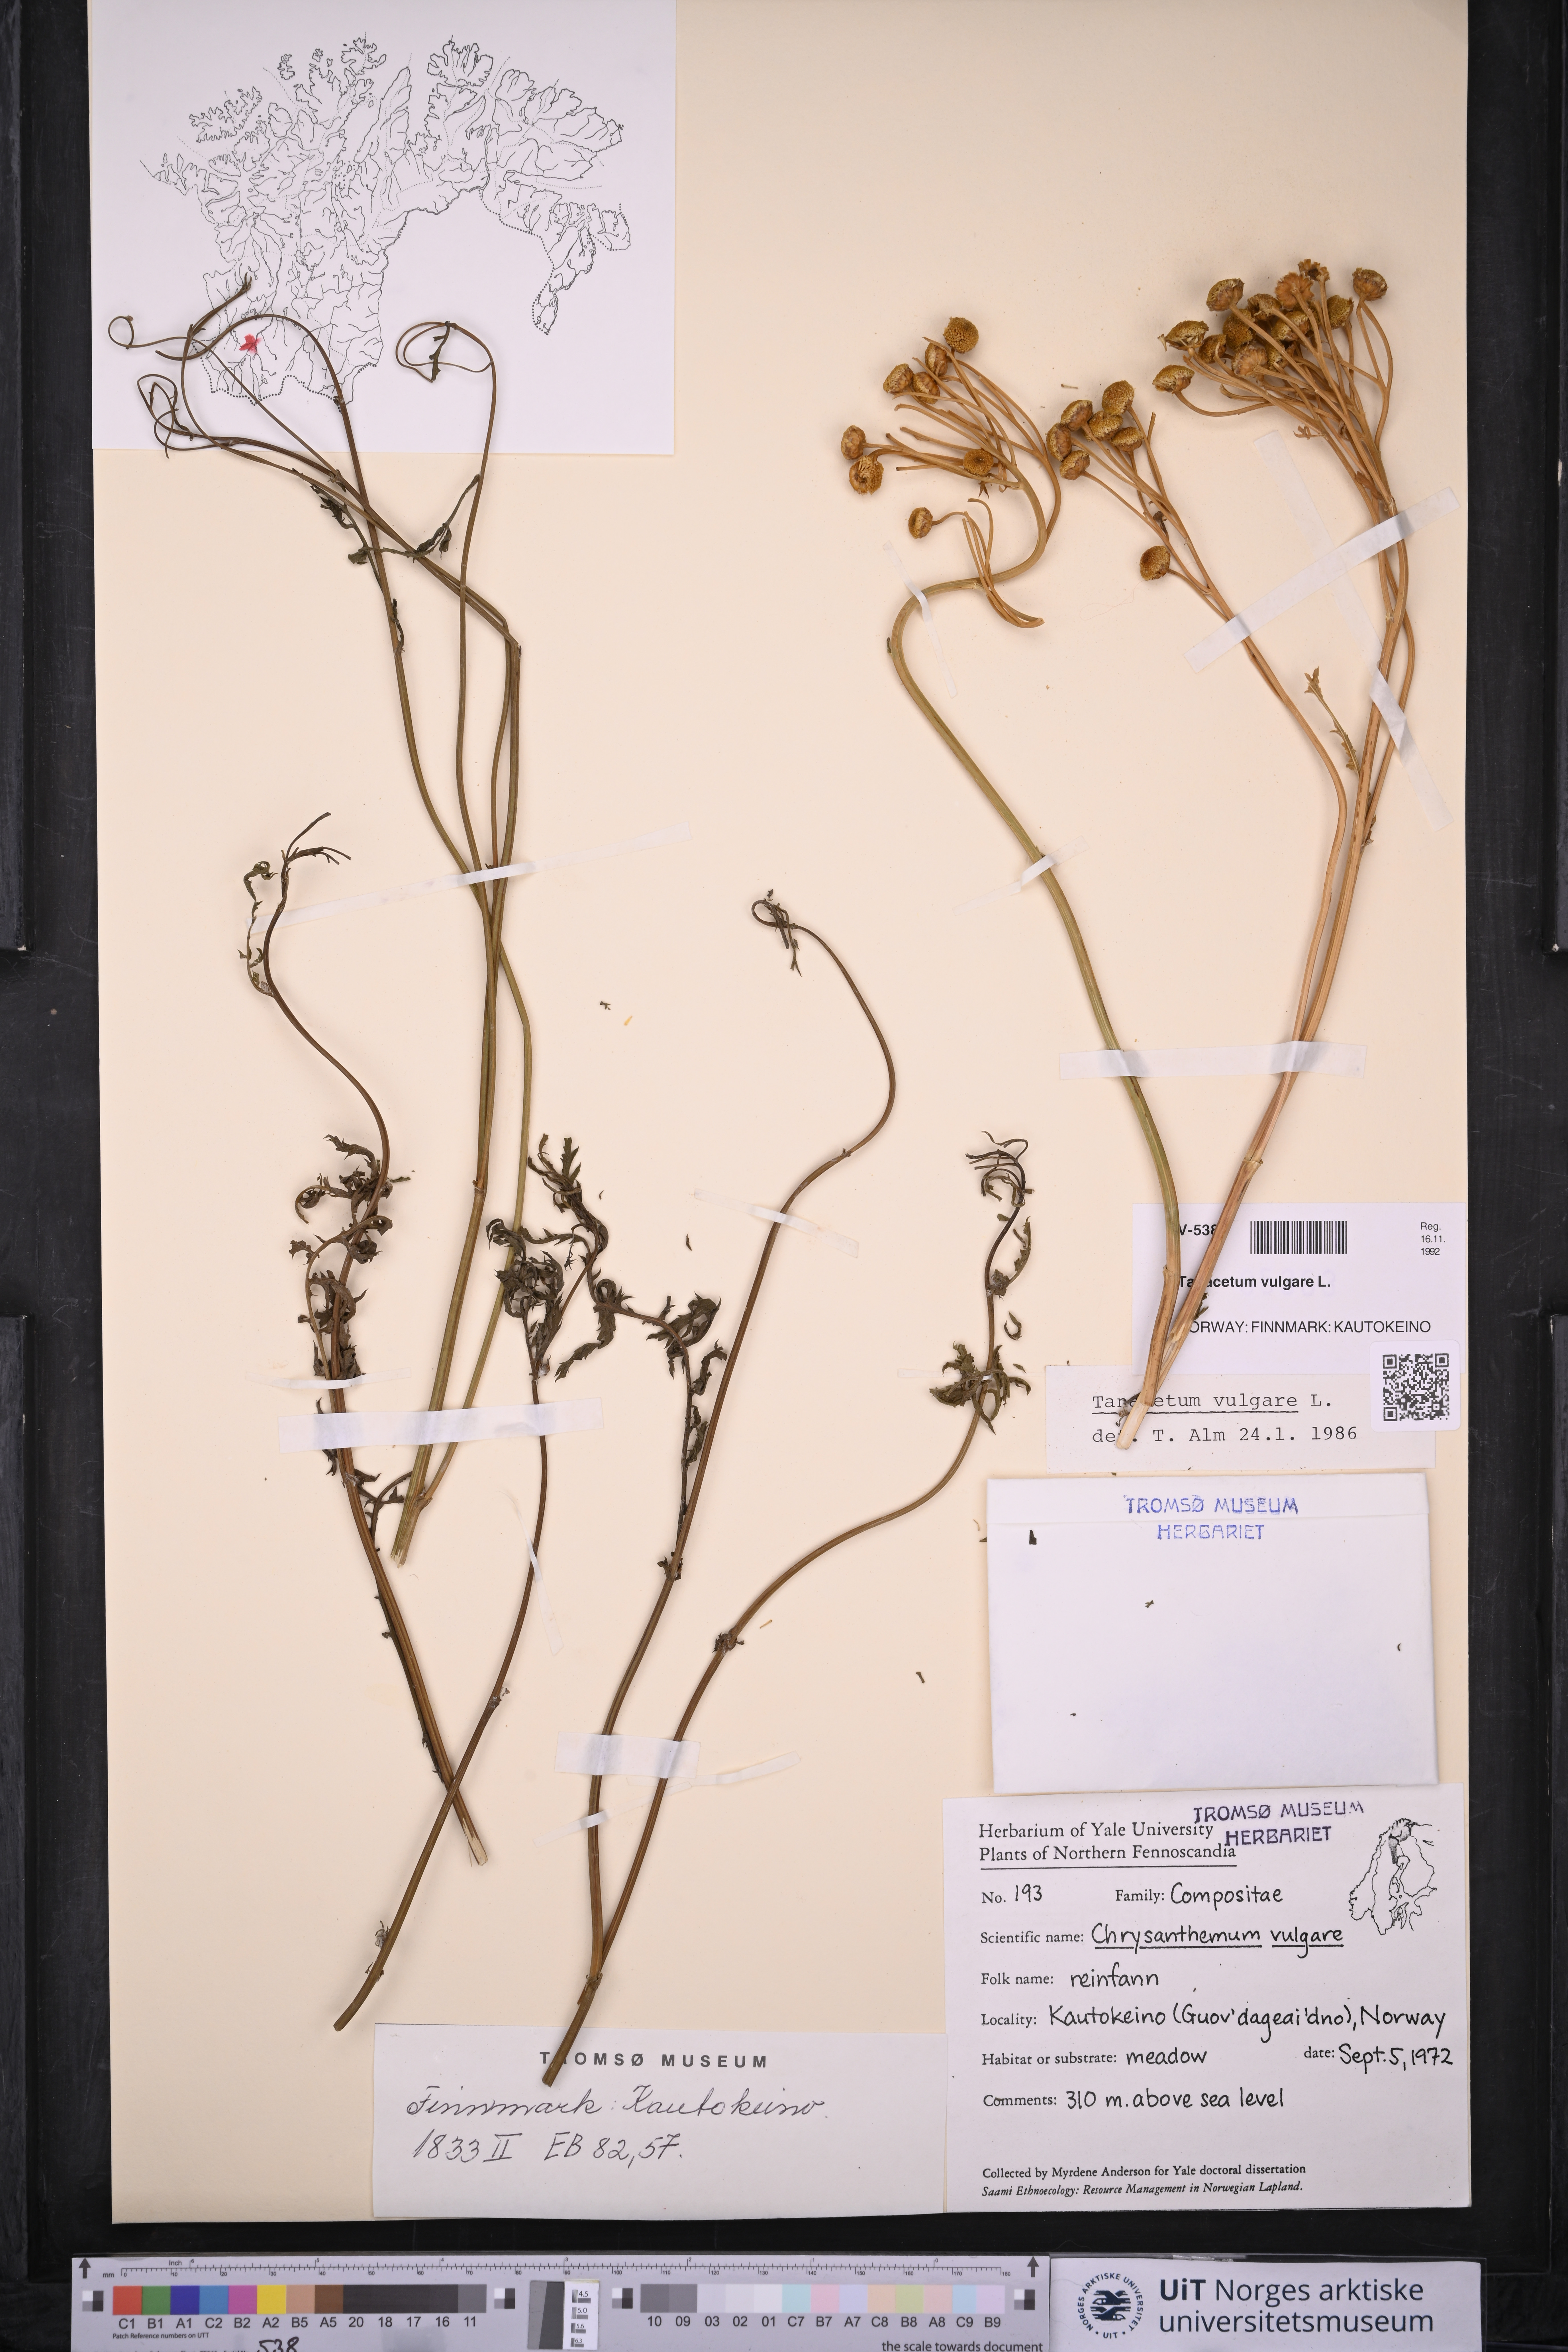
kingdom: Plantae
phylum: Tracheophyta
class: Magnoliopsida
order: Asterales
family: Asteraceae
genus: Tanacetum
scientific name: Tanacetum vulgare
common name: Common tansy
